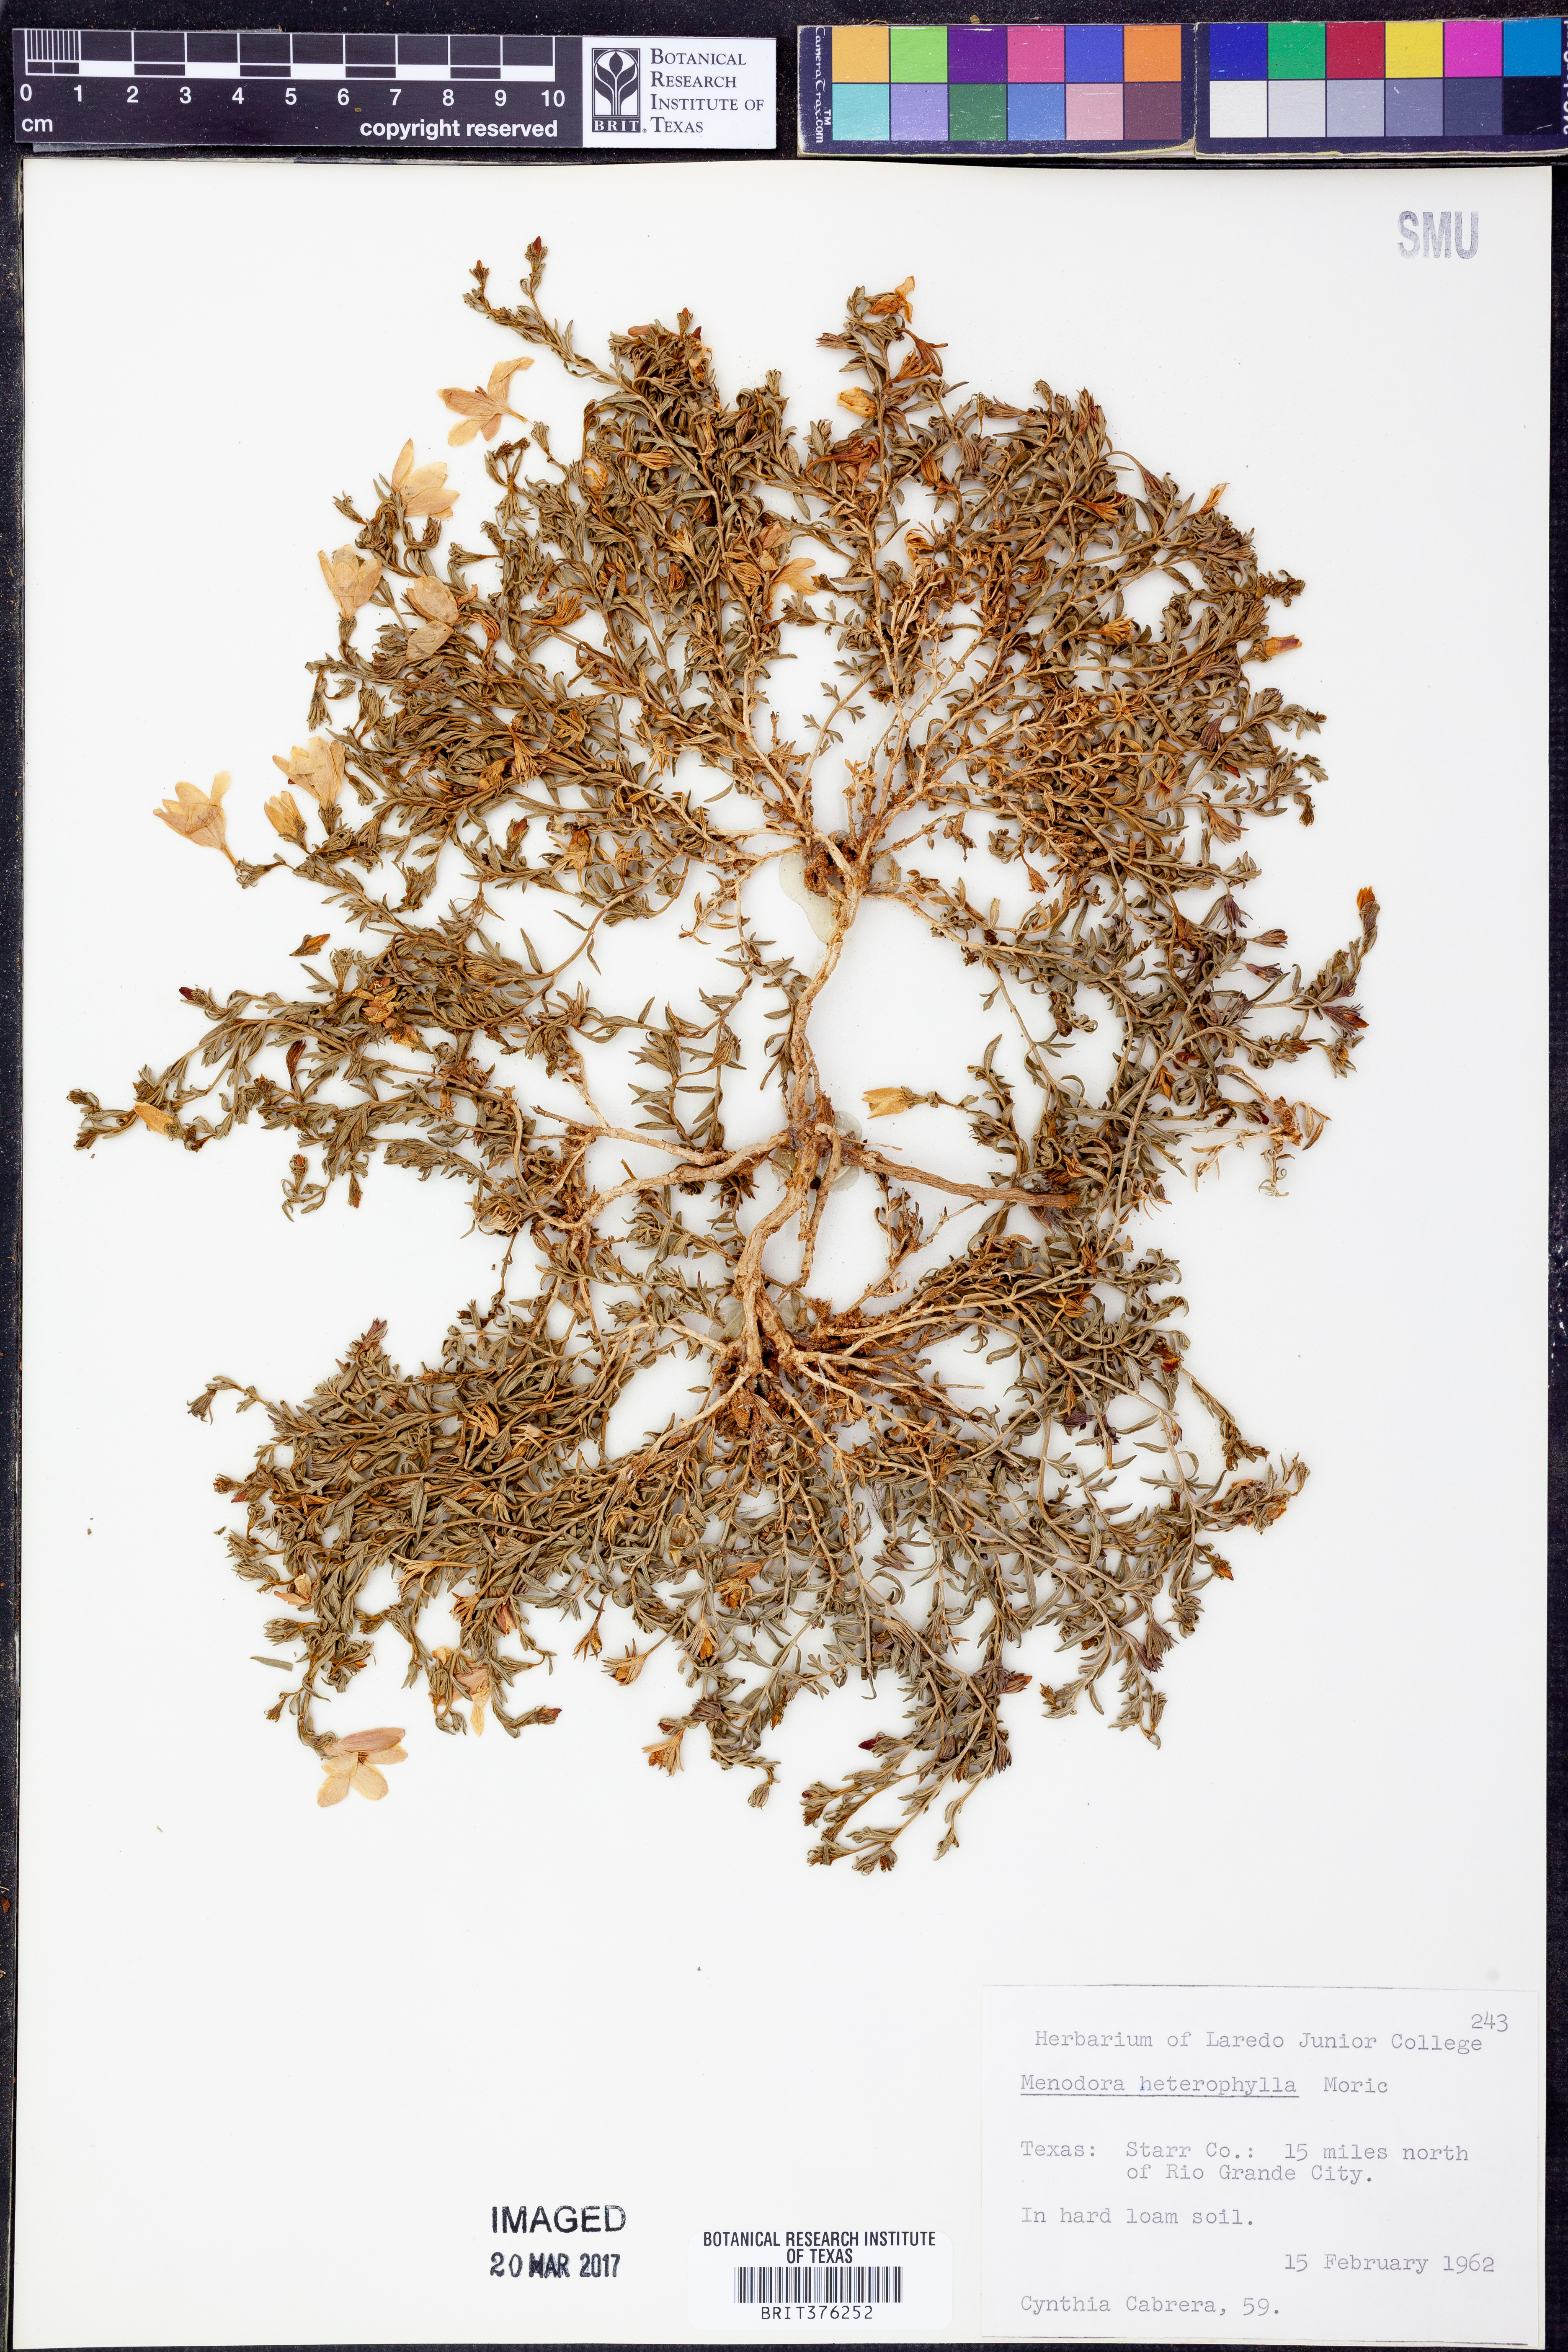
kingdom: Plantae
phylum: Tracheophyta
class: Magnoliopsida
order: Lamiales
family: Oleaceae
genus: Menodora
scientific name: Menodora heterophylla
